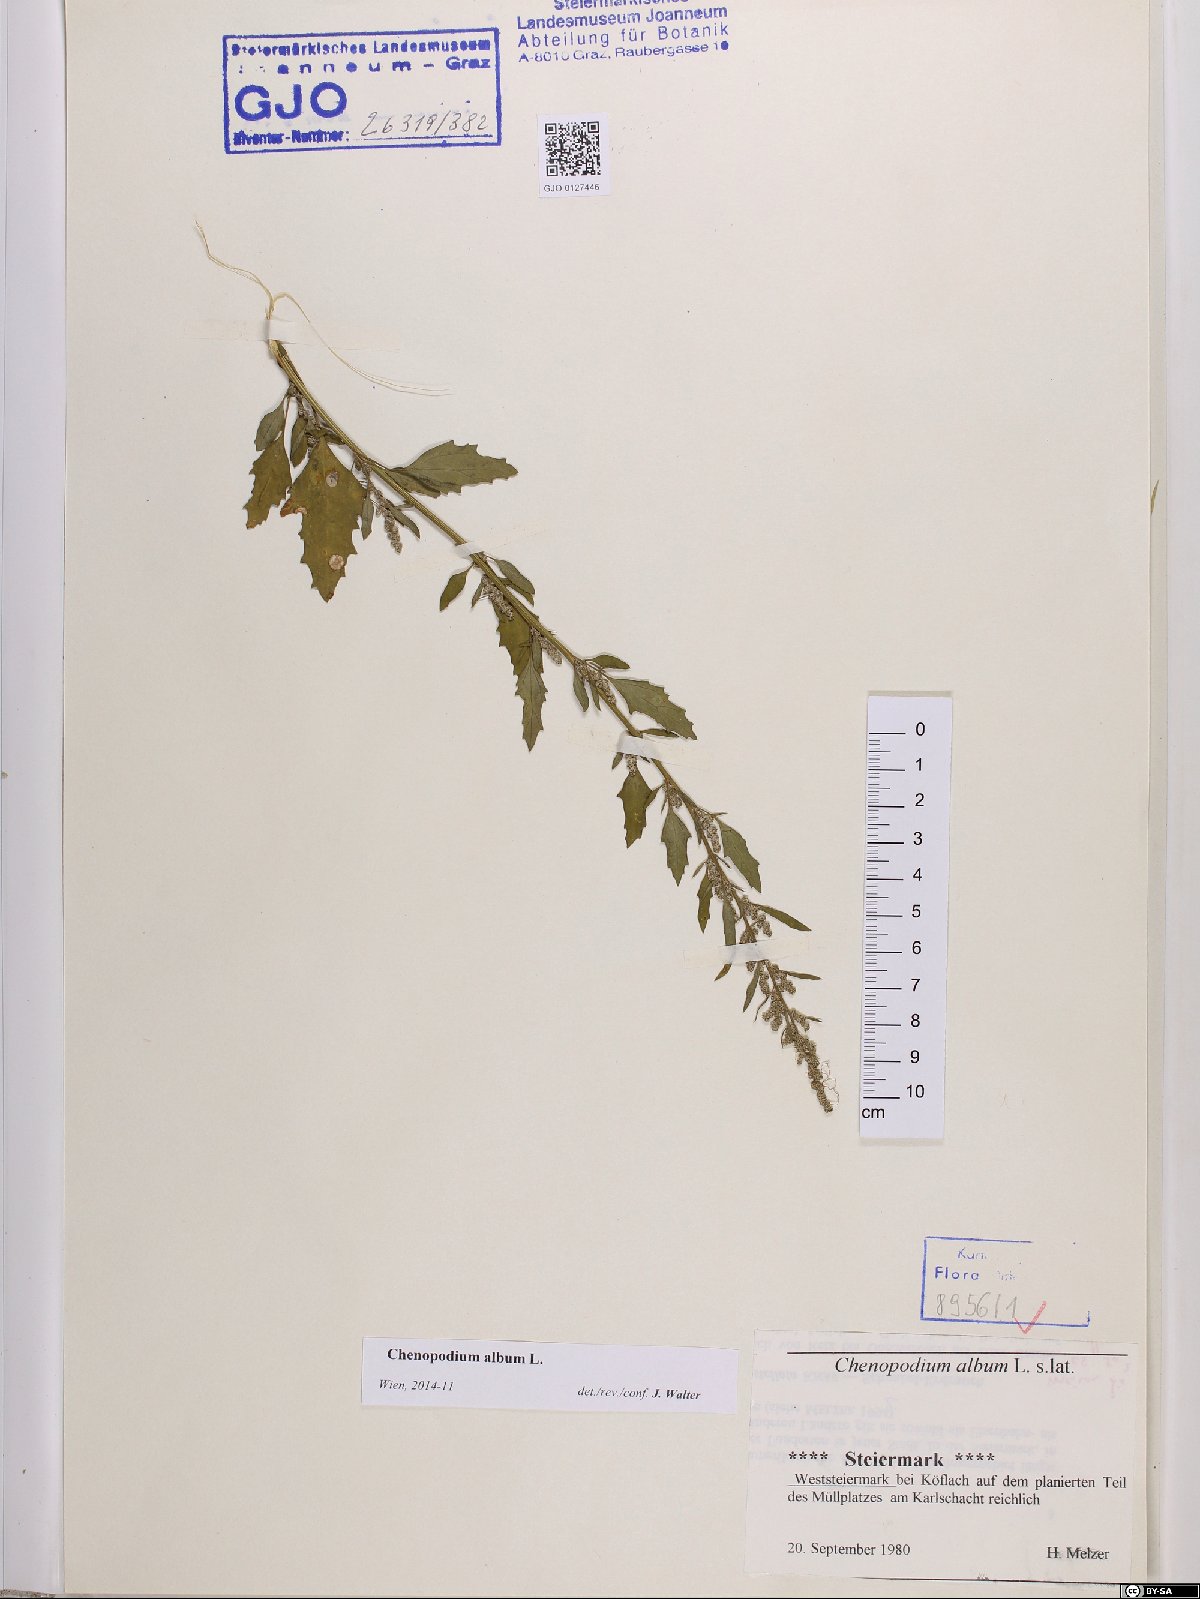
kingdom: Plantae
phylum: Tracheophyta
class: Magnoliopsida
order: Caryophyllales
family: Amaranthaceae
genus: Chenopodium
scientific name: Chenopodium album
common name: Fat-hen
